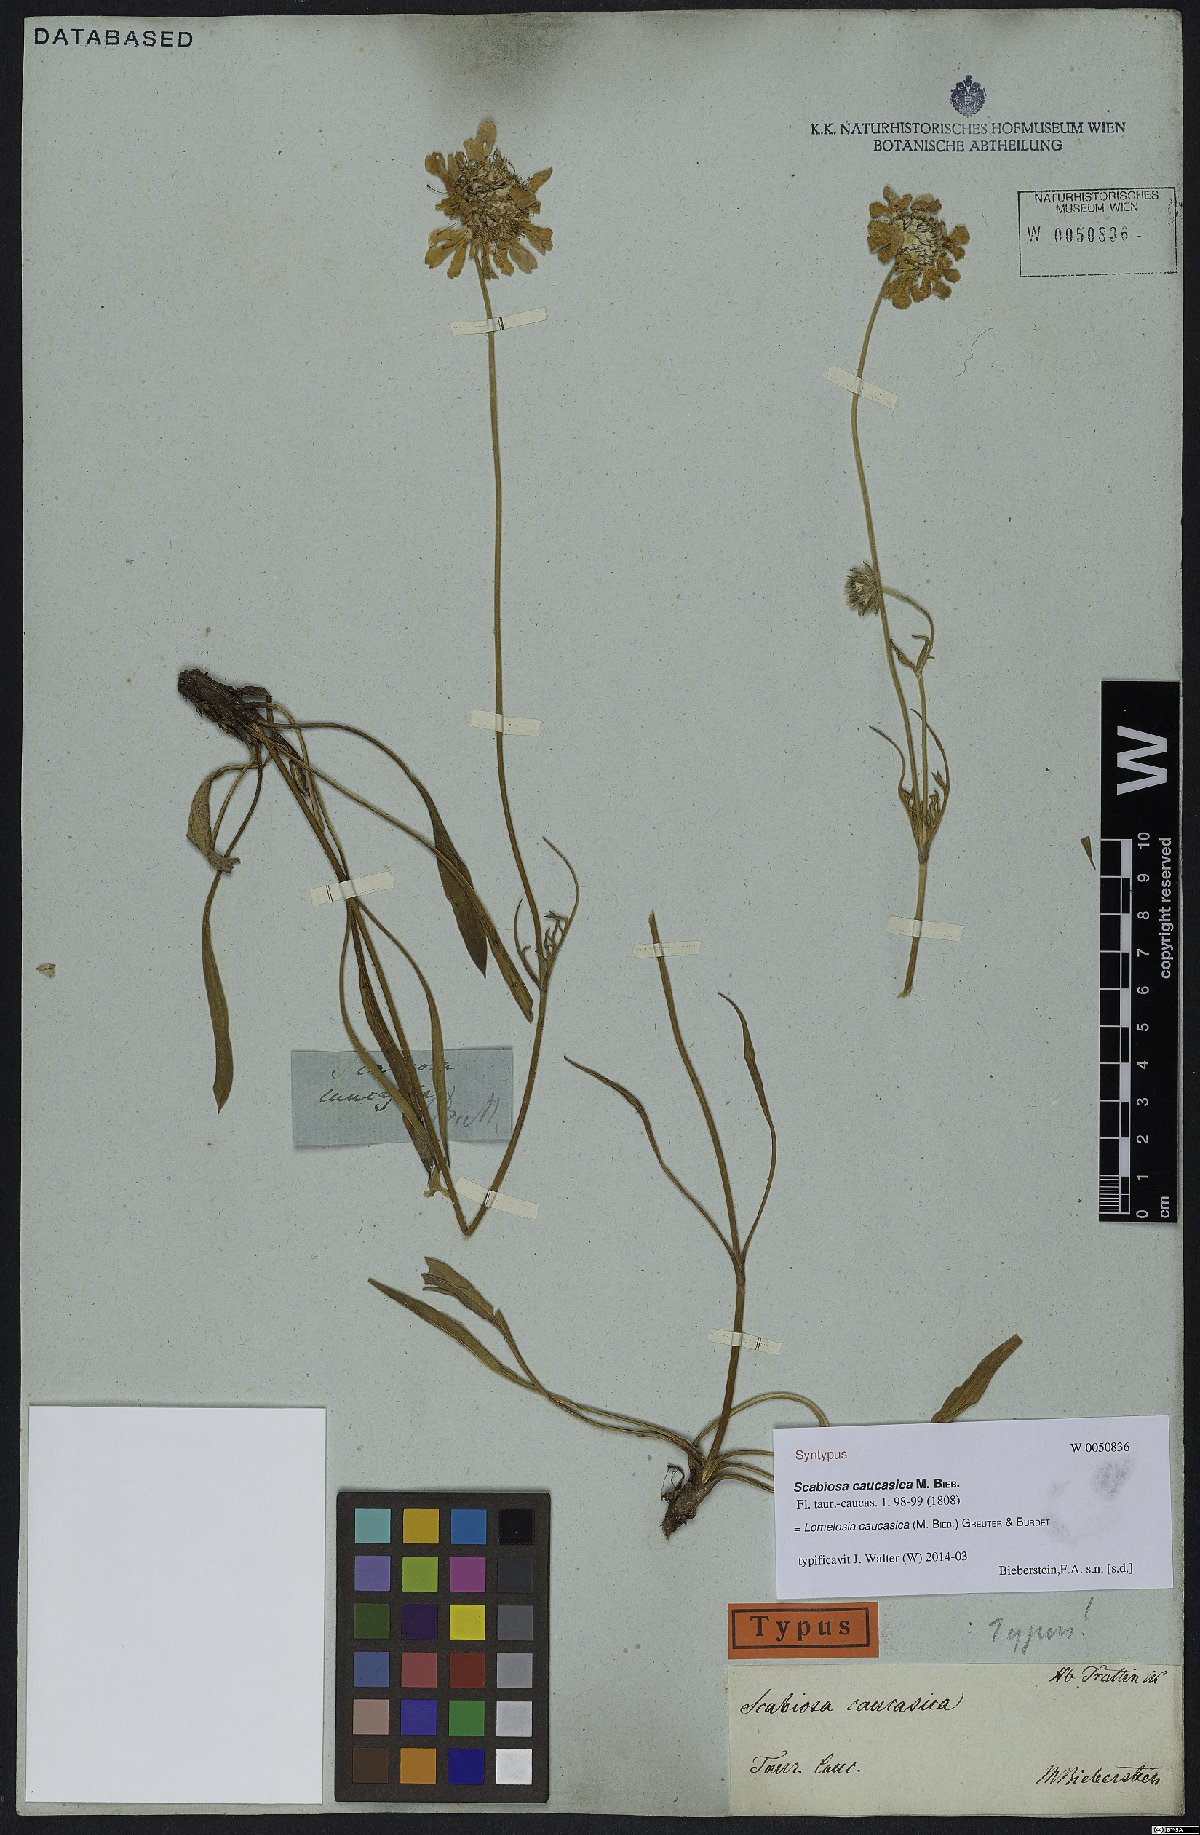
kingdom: Plantae
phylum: Tracheophyta
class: Magnoliopsida
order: Dipsacales
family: Caprifoliaceae
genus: Lomelosia
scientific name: Lomelosia caucasica
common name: Pincushion-flower
